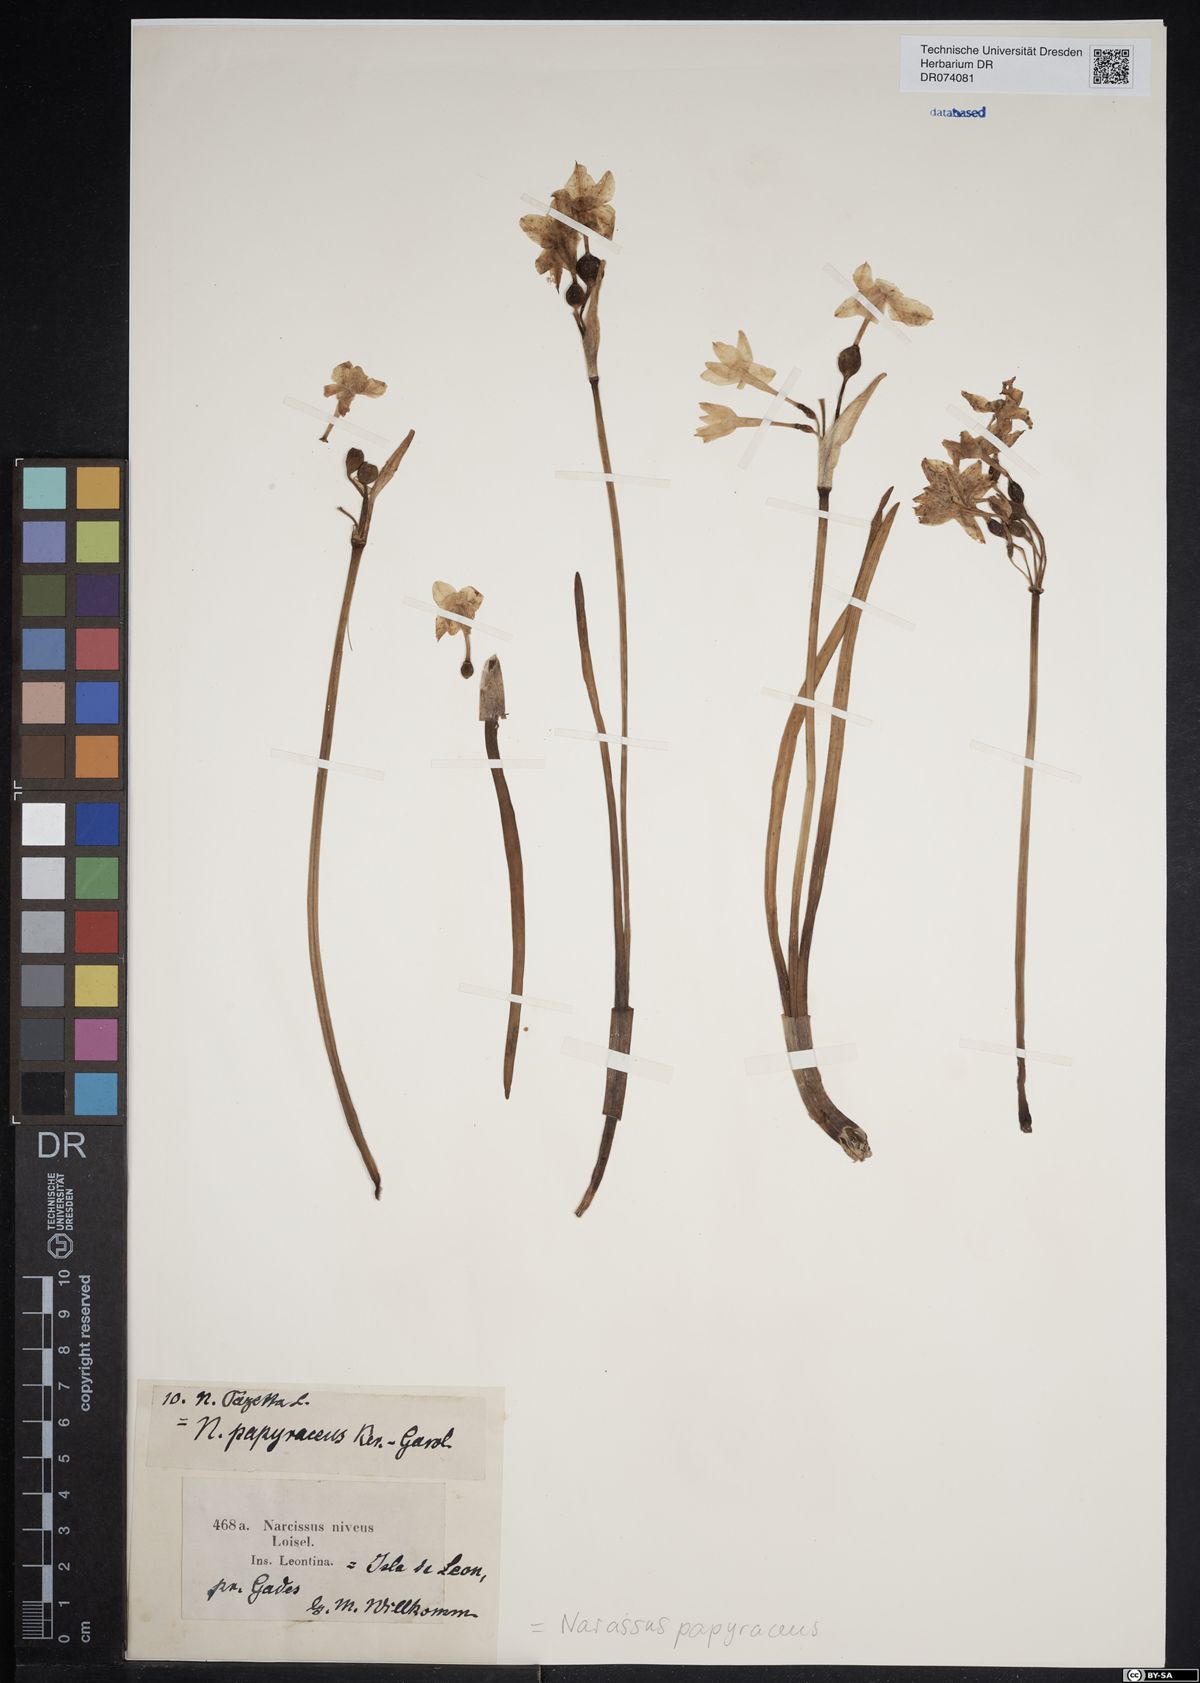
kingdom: Plantae
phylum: Tracheophyta
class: Liliopsida
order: Asparagales
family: Amaryllidaceae
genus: Narcissus
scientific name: Narcissus papyraceus
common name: Paper-white daffodil
